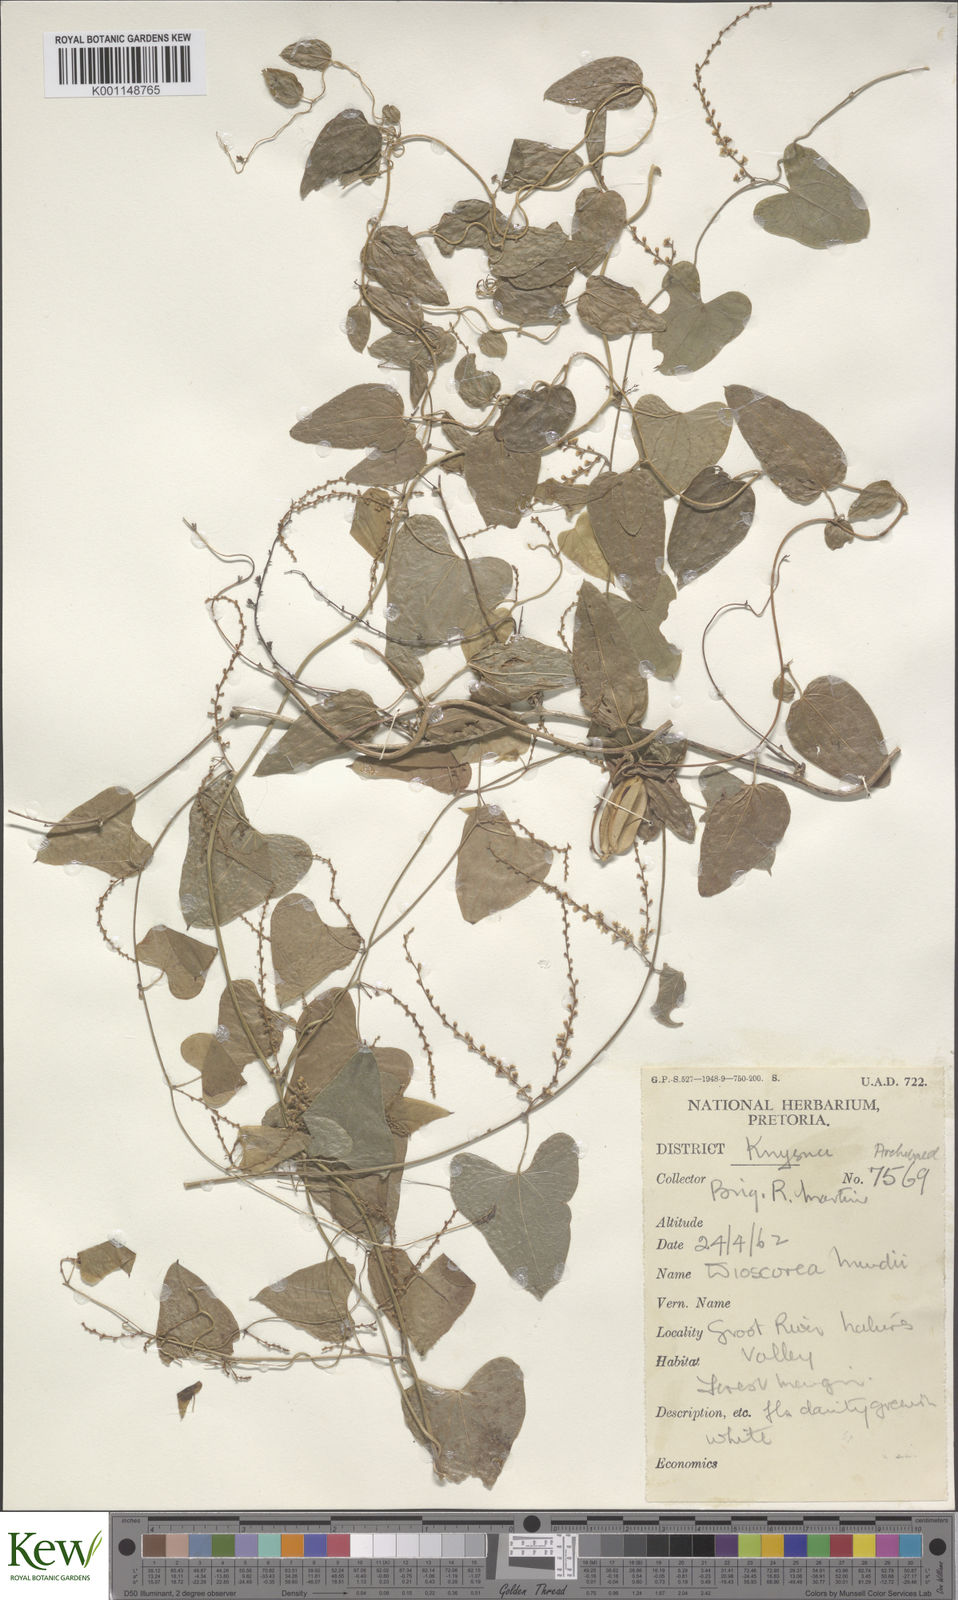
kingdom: Plantae
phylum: Tracheophyta
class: Liliopsida
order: Dioscoreales
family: Dioscoreaceae
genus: Dioscorea
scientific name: Dioscorea mundii
